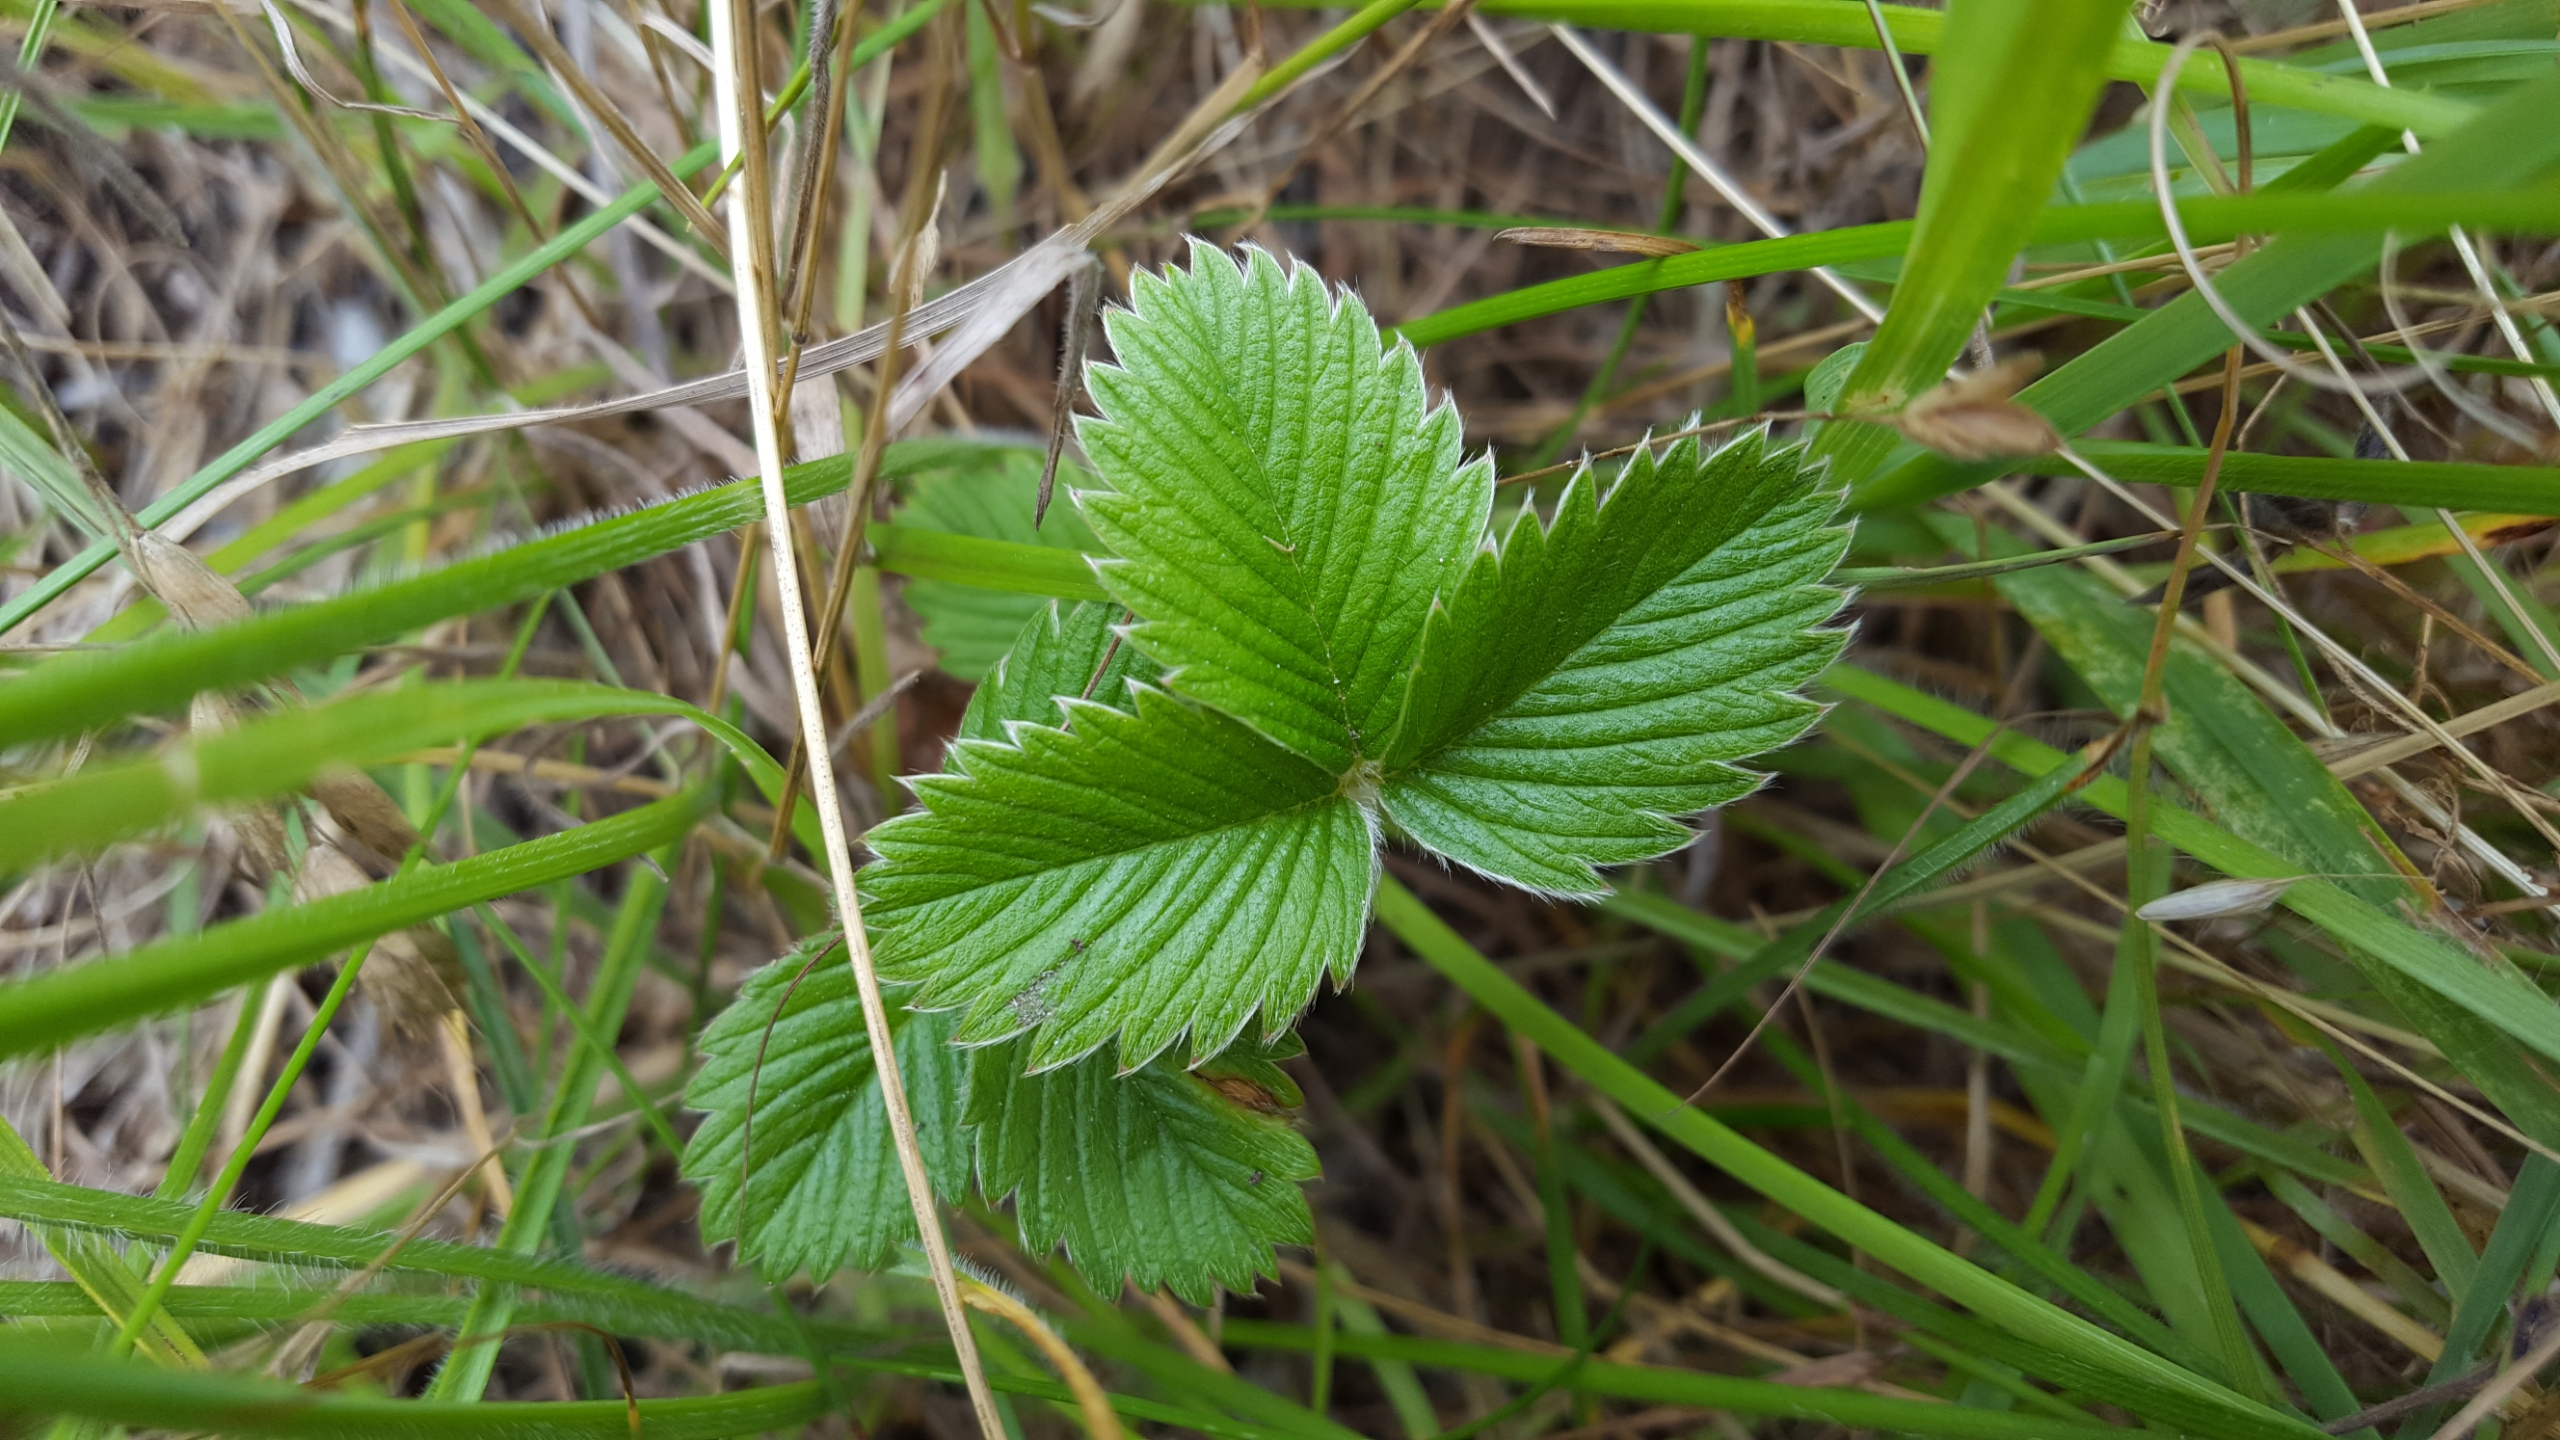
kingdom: Plantae
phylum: Tracheophyta
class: Magnoliopsida
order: Rosales
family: Rosaceae
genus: Fragaria
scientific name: Fragaria viridis
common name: Bakke-jordbær
